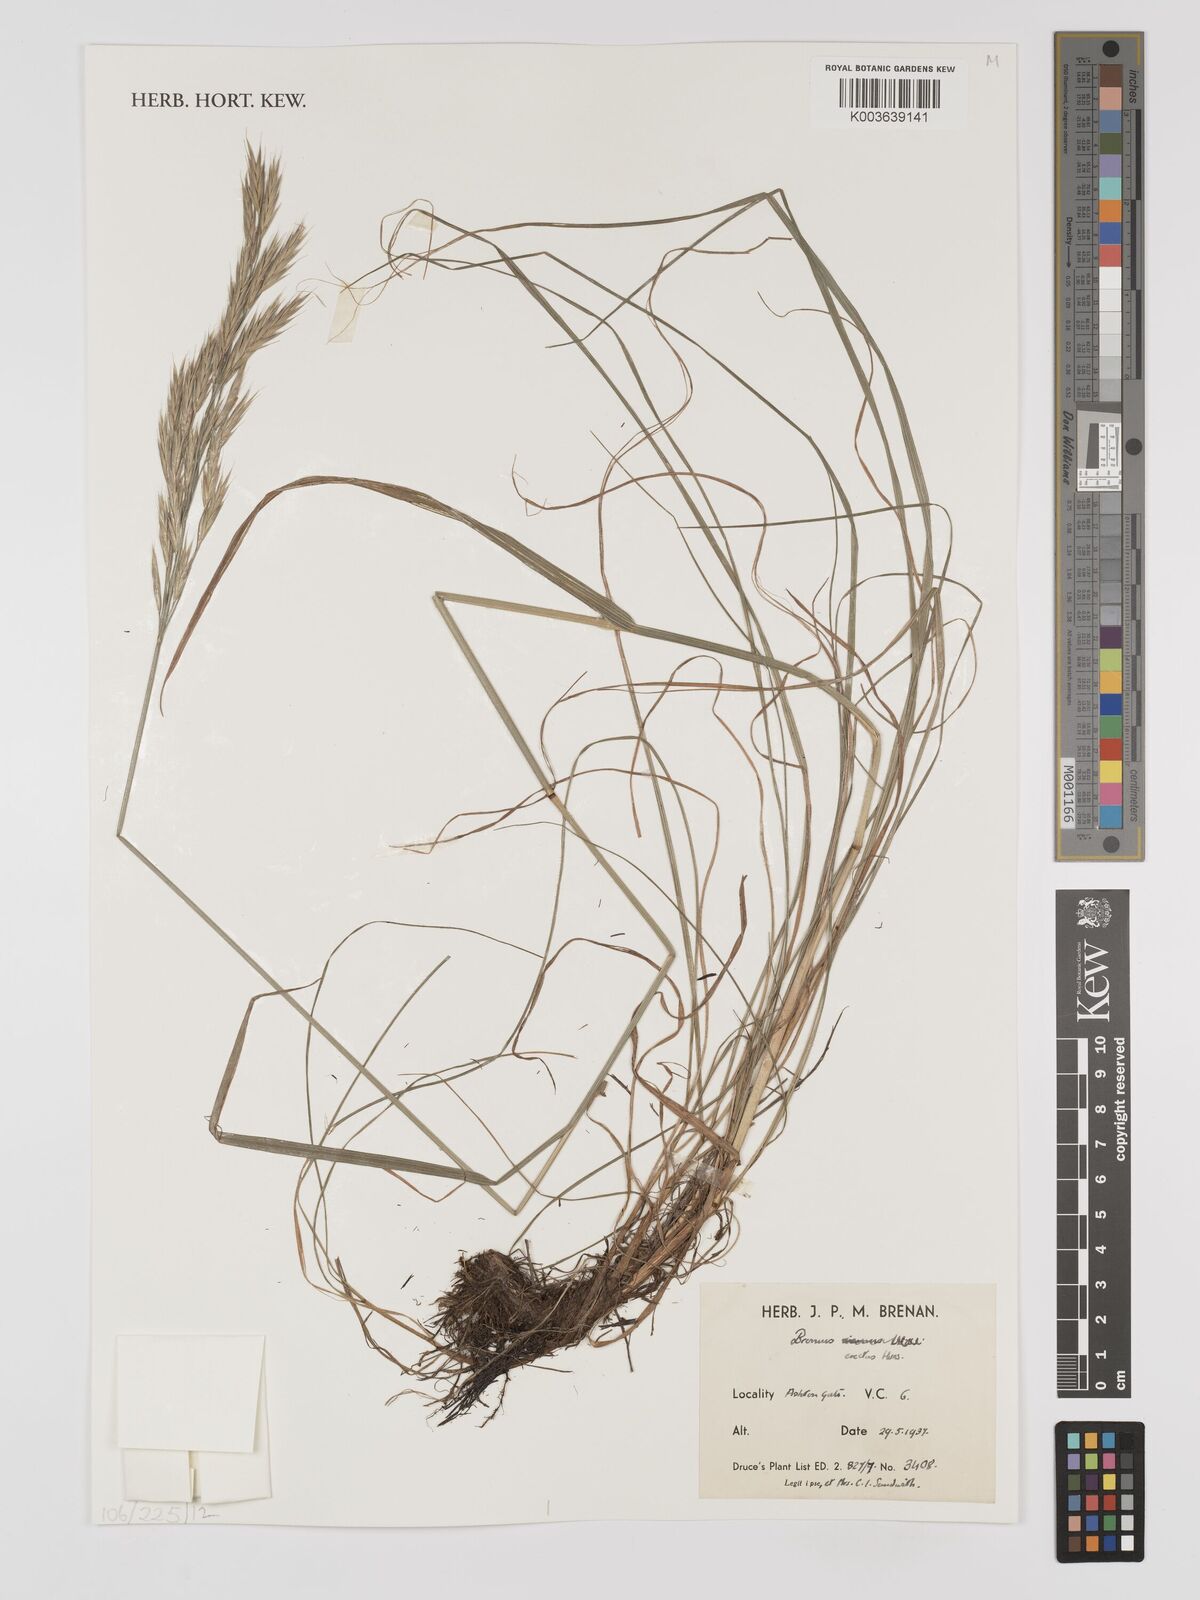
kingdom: Plantae
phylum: Tracheophyta
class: Liliopsida
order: Poales
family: Poaceae
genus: Bromus
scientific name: Bromus erectus
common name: Erect brome
